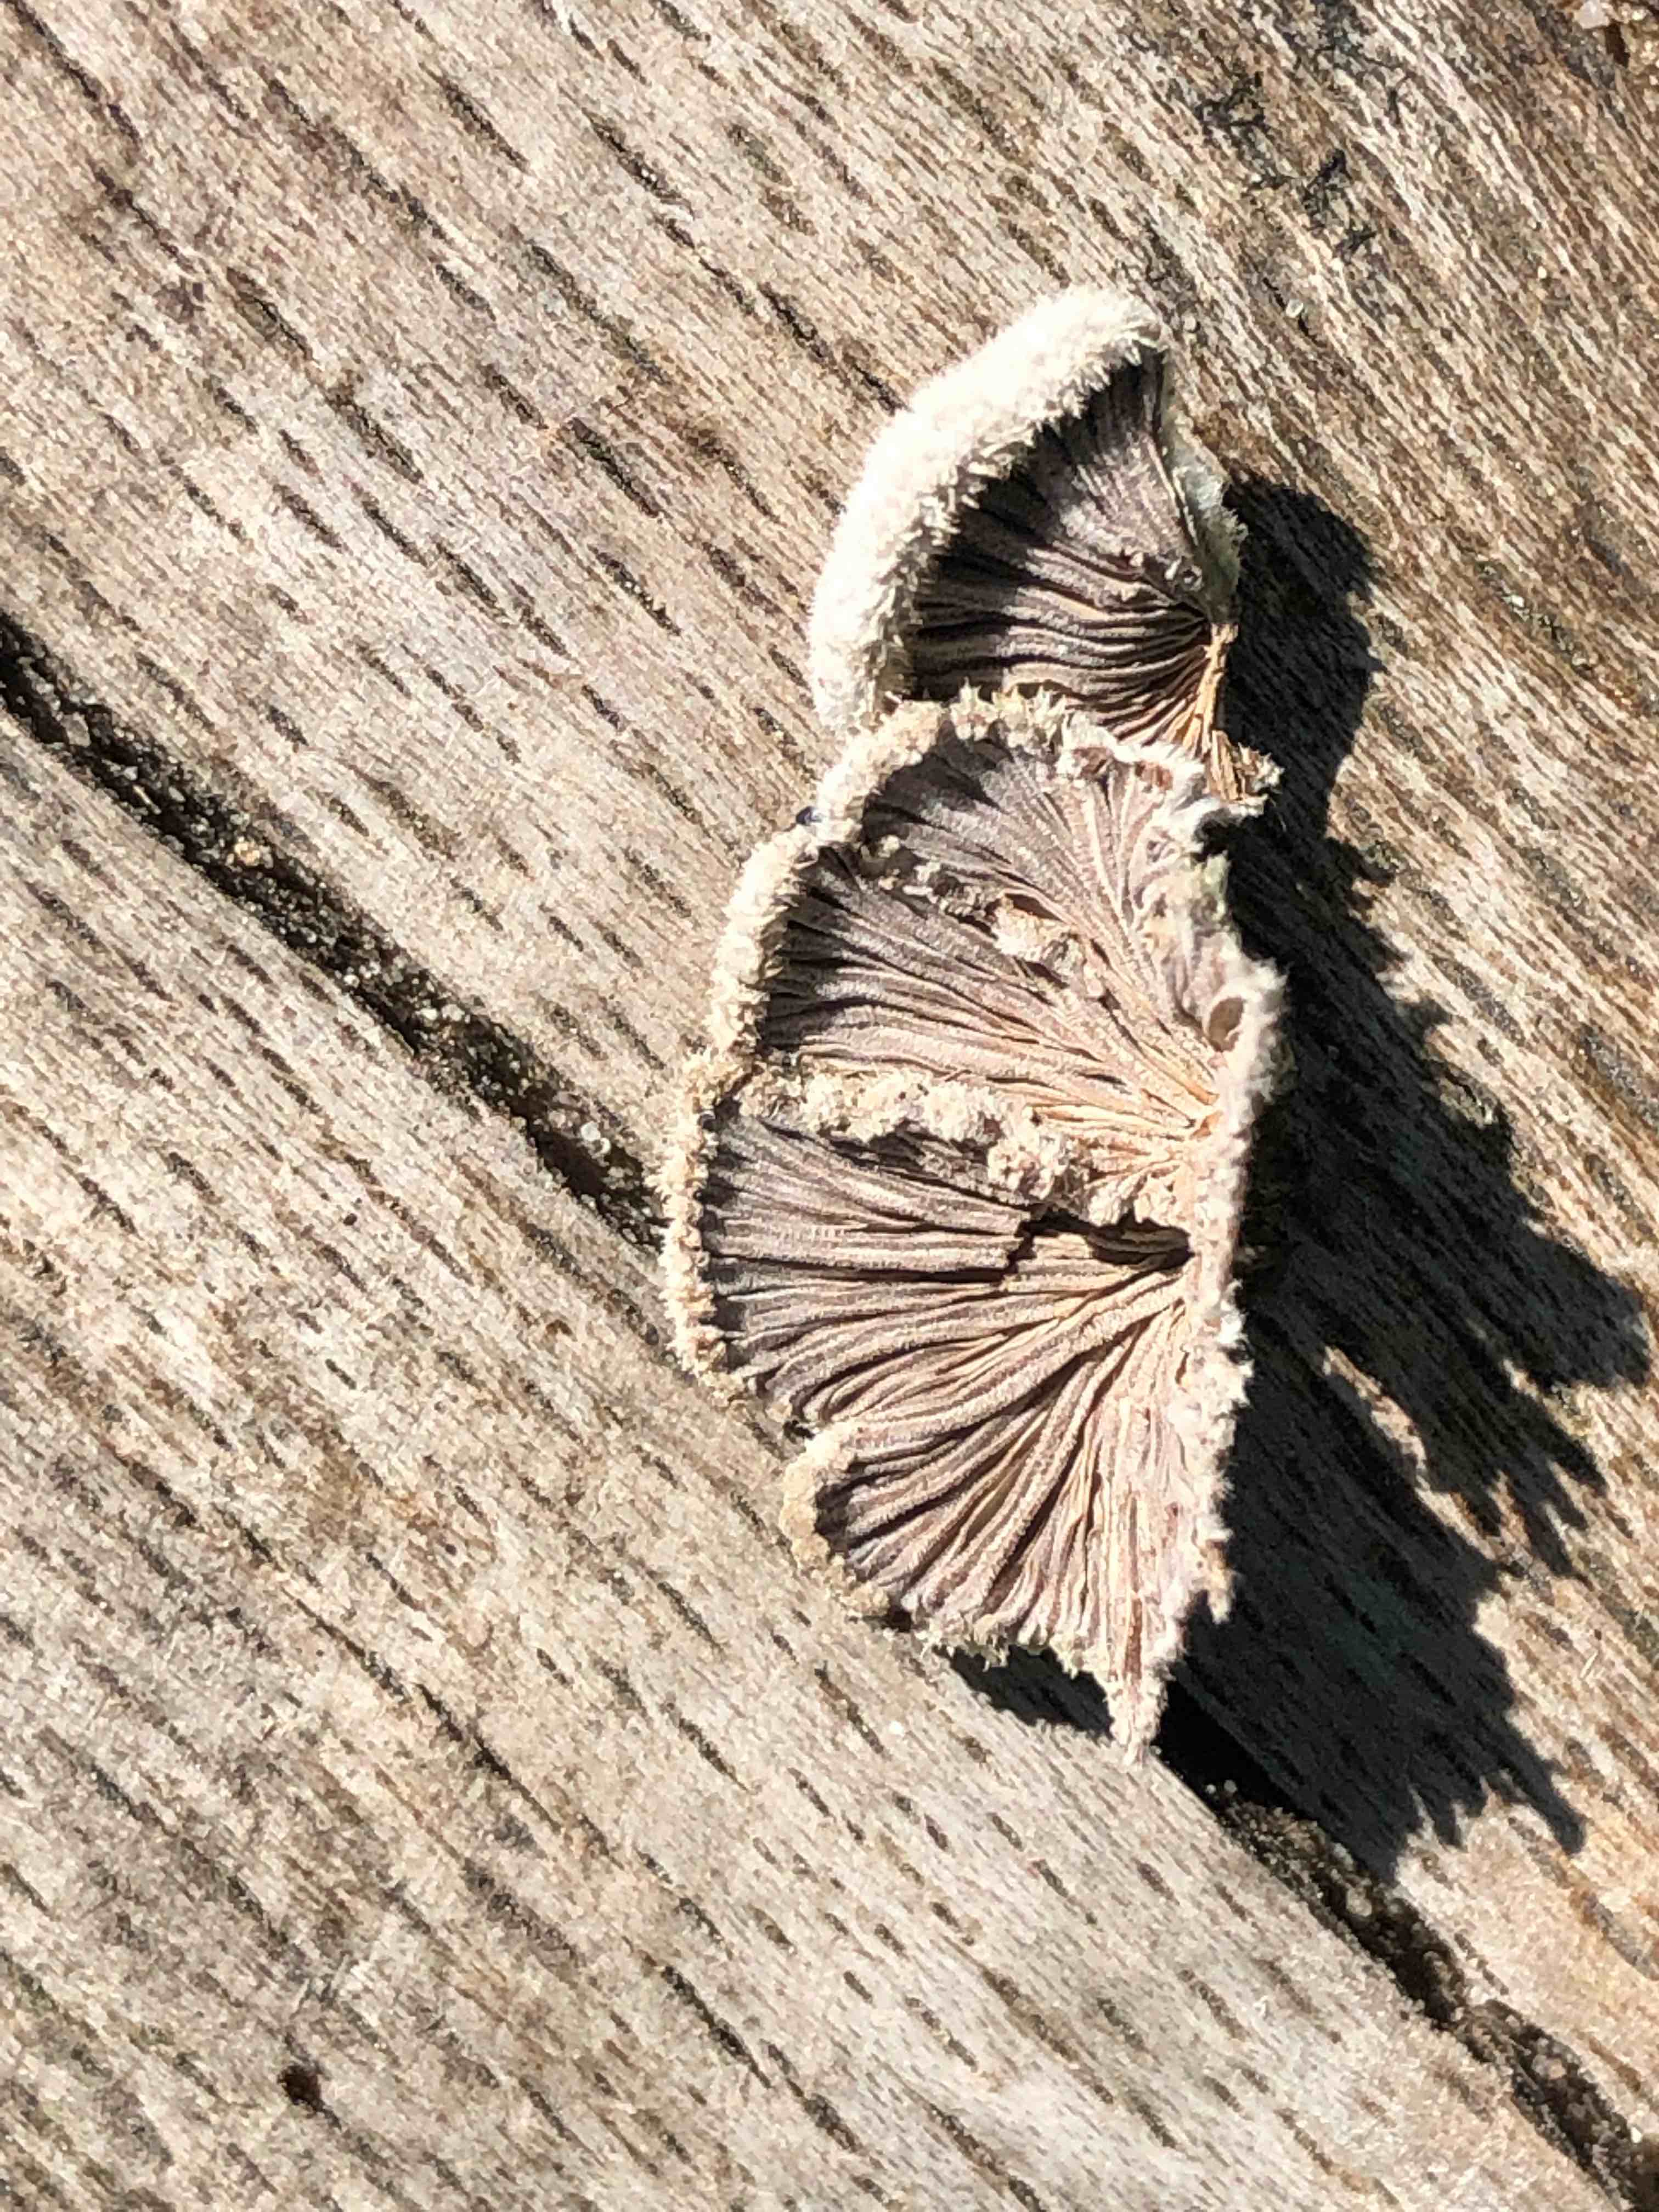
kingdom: Fungi
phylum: Basidiomycota
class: Agaricomycetes
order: Agaricales
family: Schizophyllaceae
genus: Schizophyllum
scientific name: Schizophyllum commune
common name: kløvblad
